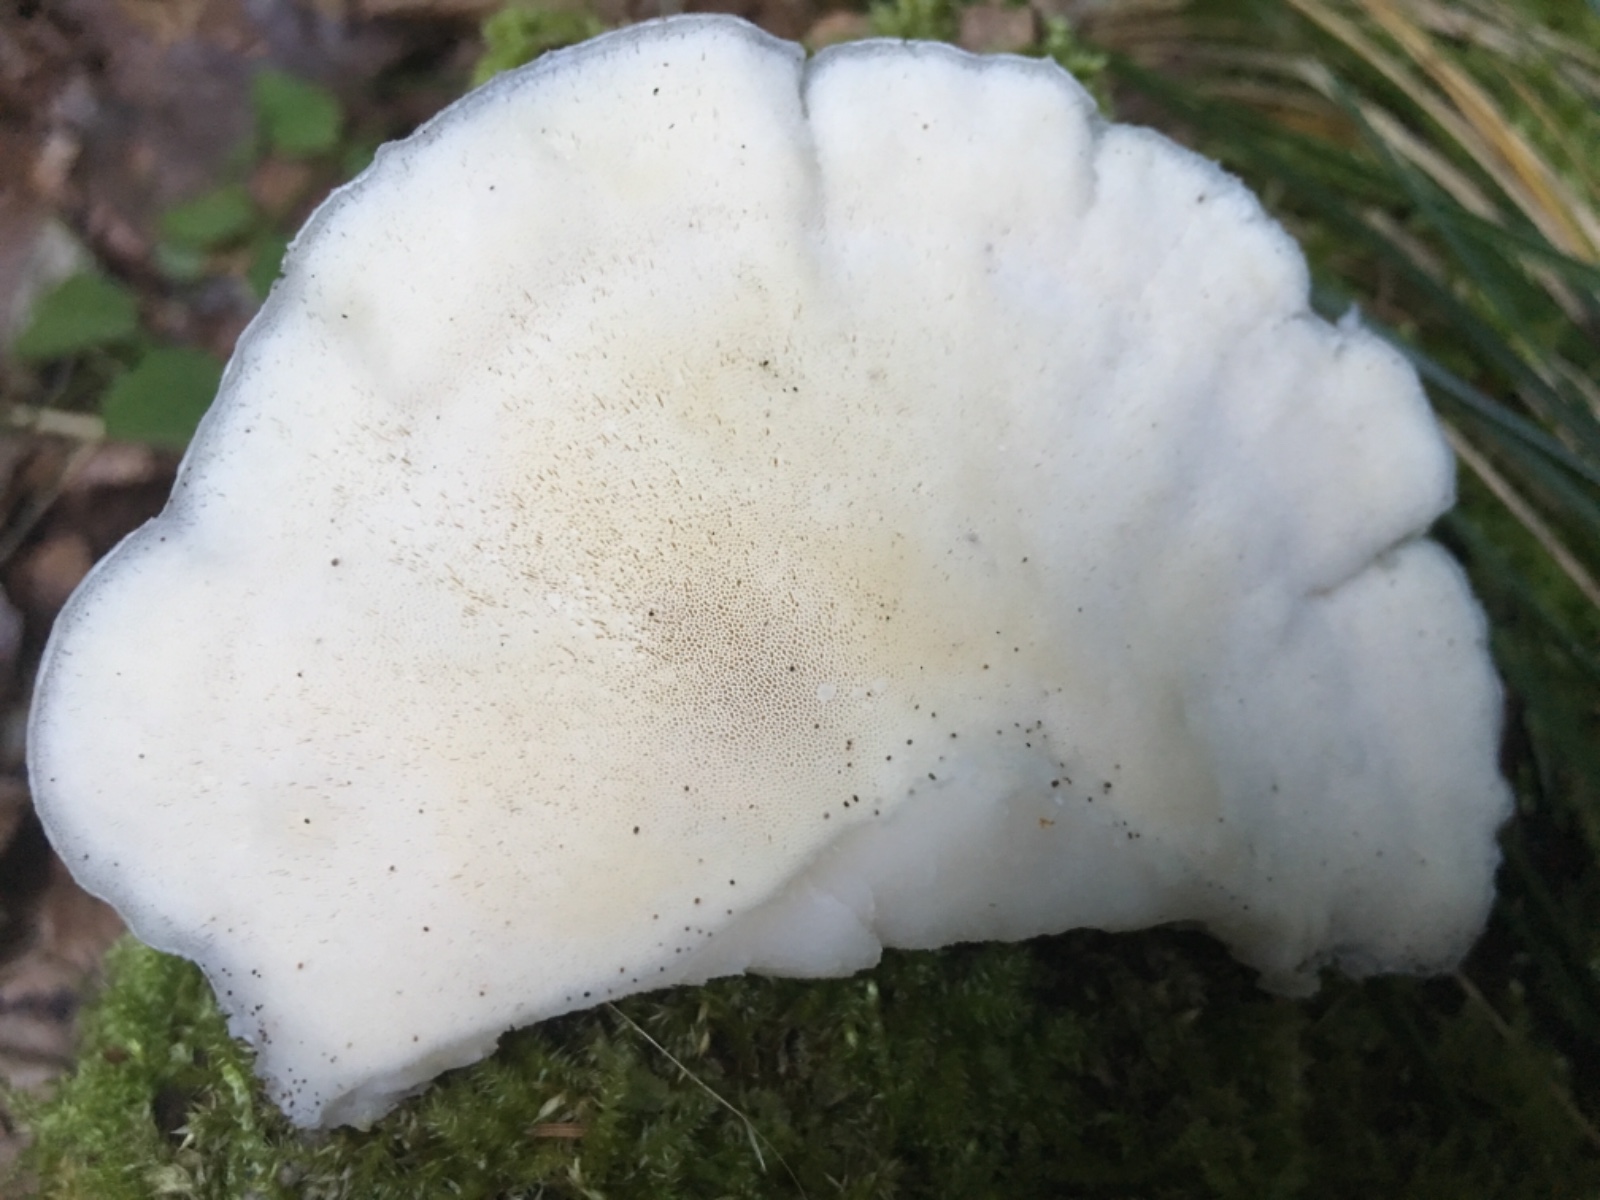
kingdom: Fungi
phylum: Basidiomycota
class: Agaricomycetes
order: Polyporales
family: Incrustoporiaceae
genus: Tyromyces
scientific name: Tyromyces lacteus
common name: mælkehvid kødporesvamp
